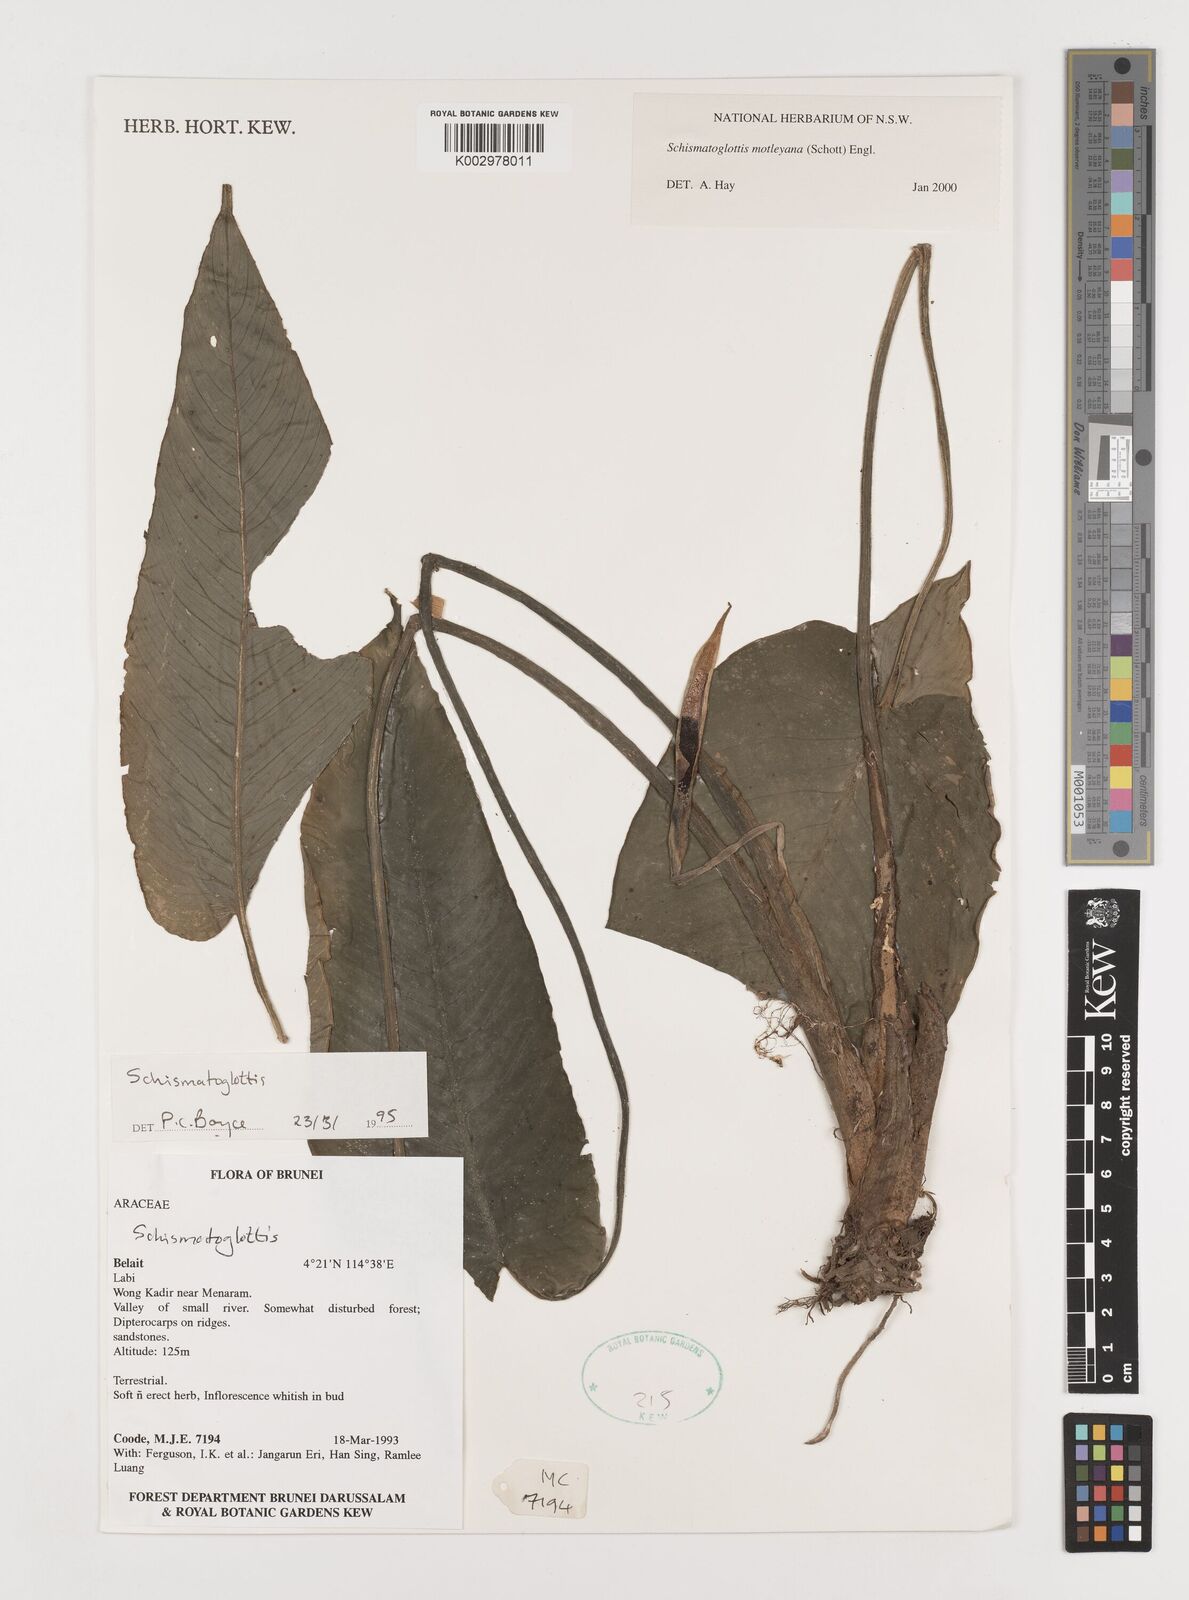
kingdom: Plantae
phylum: Tracheophyta
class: Liliopsida
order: Alismatales
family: Araceae
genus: Schismatoglottis
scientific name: Schismatoglottis motleyana
